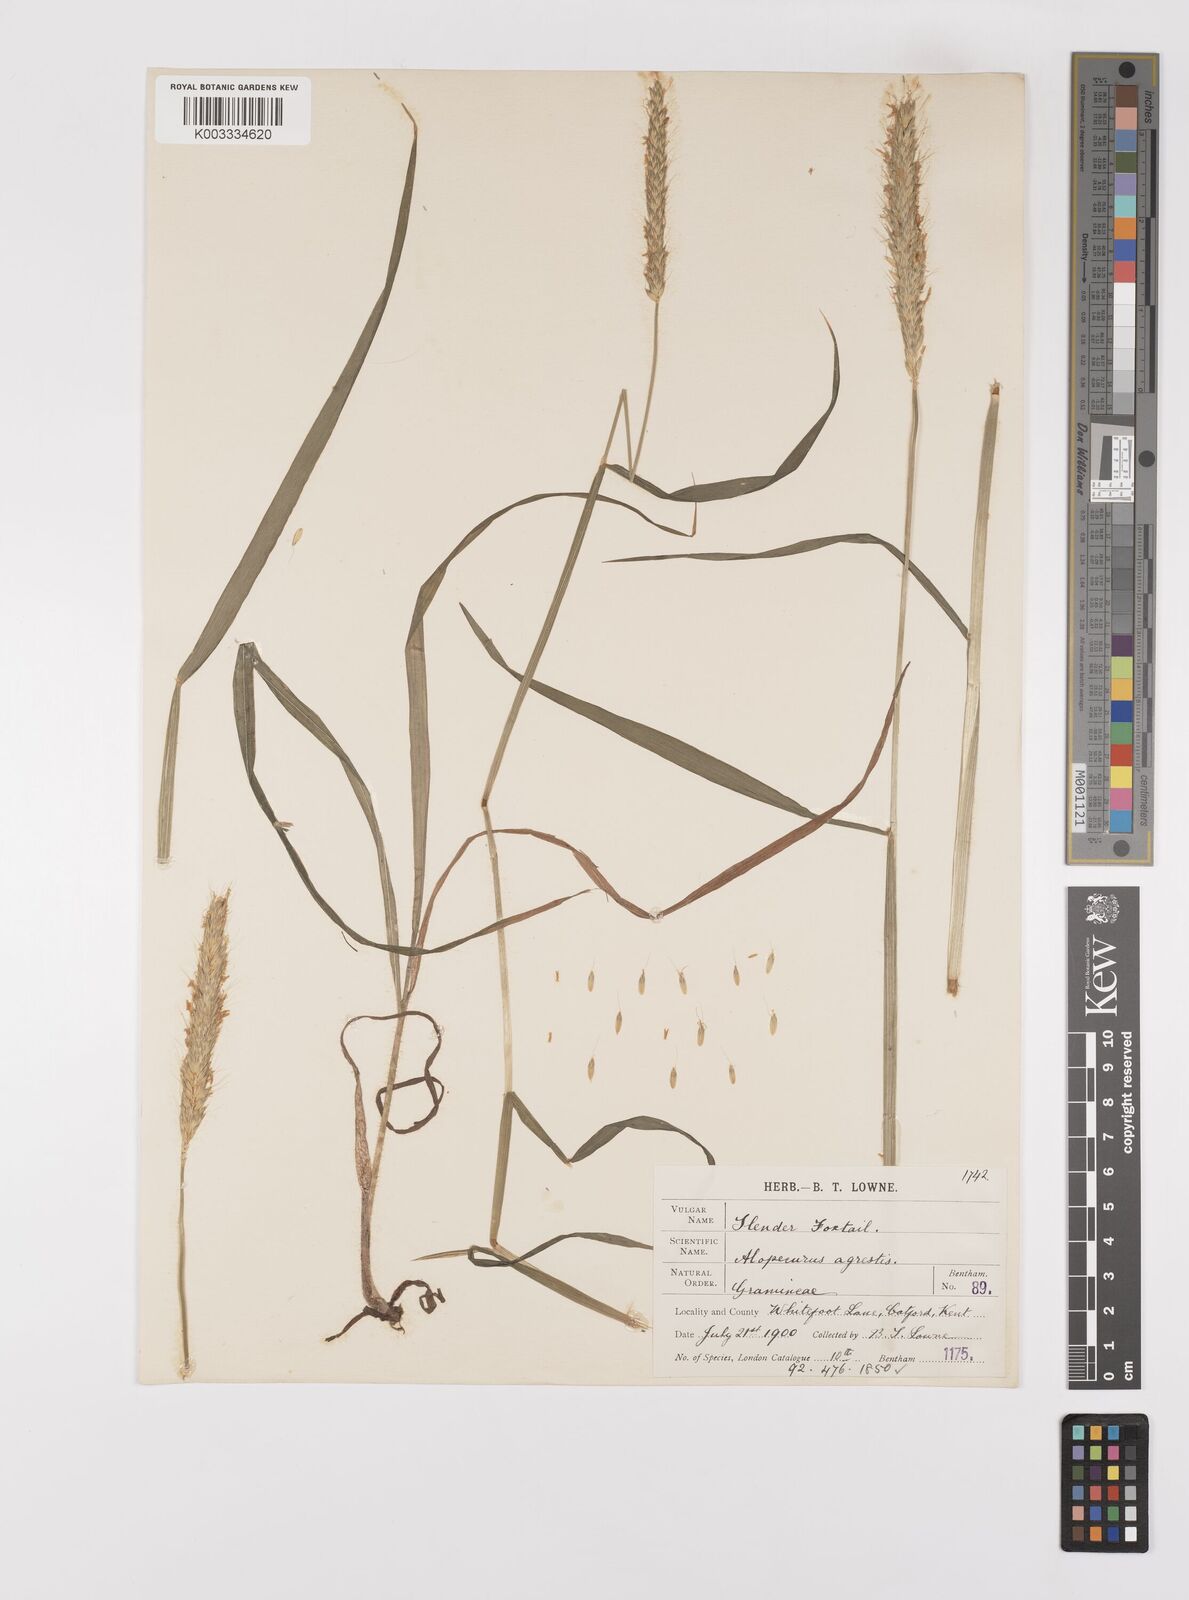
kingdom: Plantae
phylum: Tracheophyta
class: Liliopsida
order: Poales
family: Poaceae
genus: Alopecurus
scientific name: Alopecurus myosuroides
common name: Black-grass
